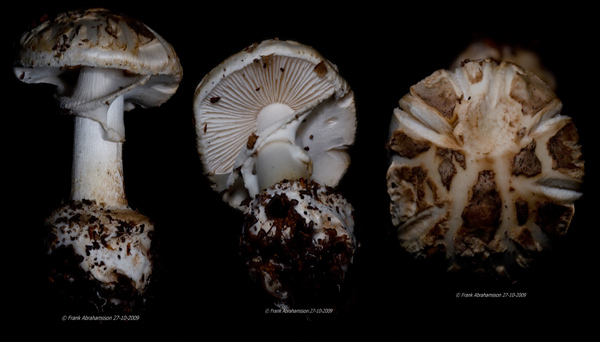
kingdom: Fungi
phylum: Basidiomycota
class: Agaricomycetes
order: Agaricales
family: Amanitaceae
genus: Amanita
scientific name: Amanita citrina
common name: False death-cap
